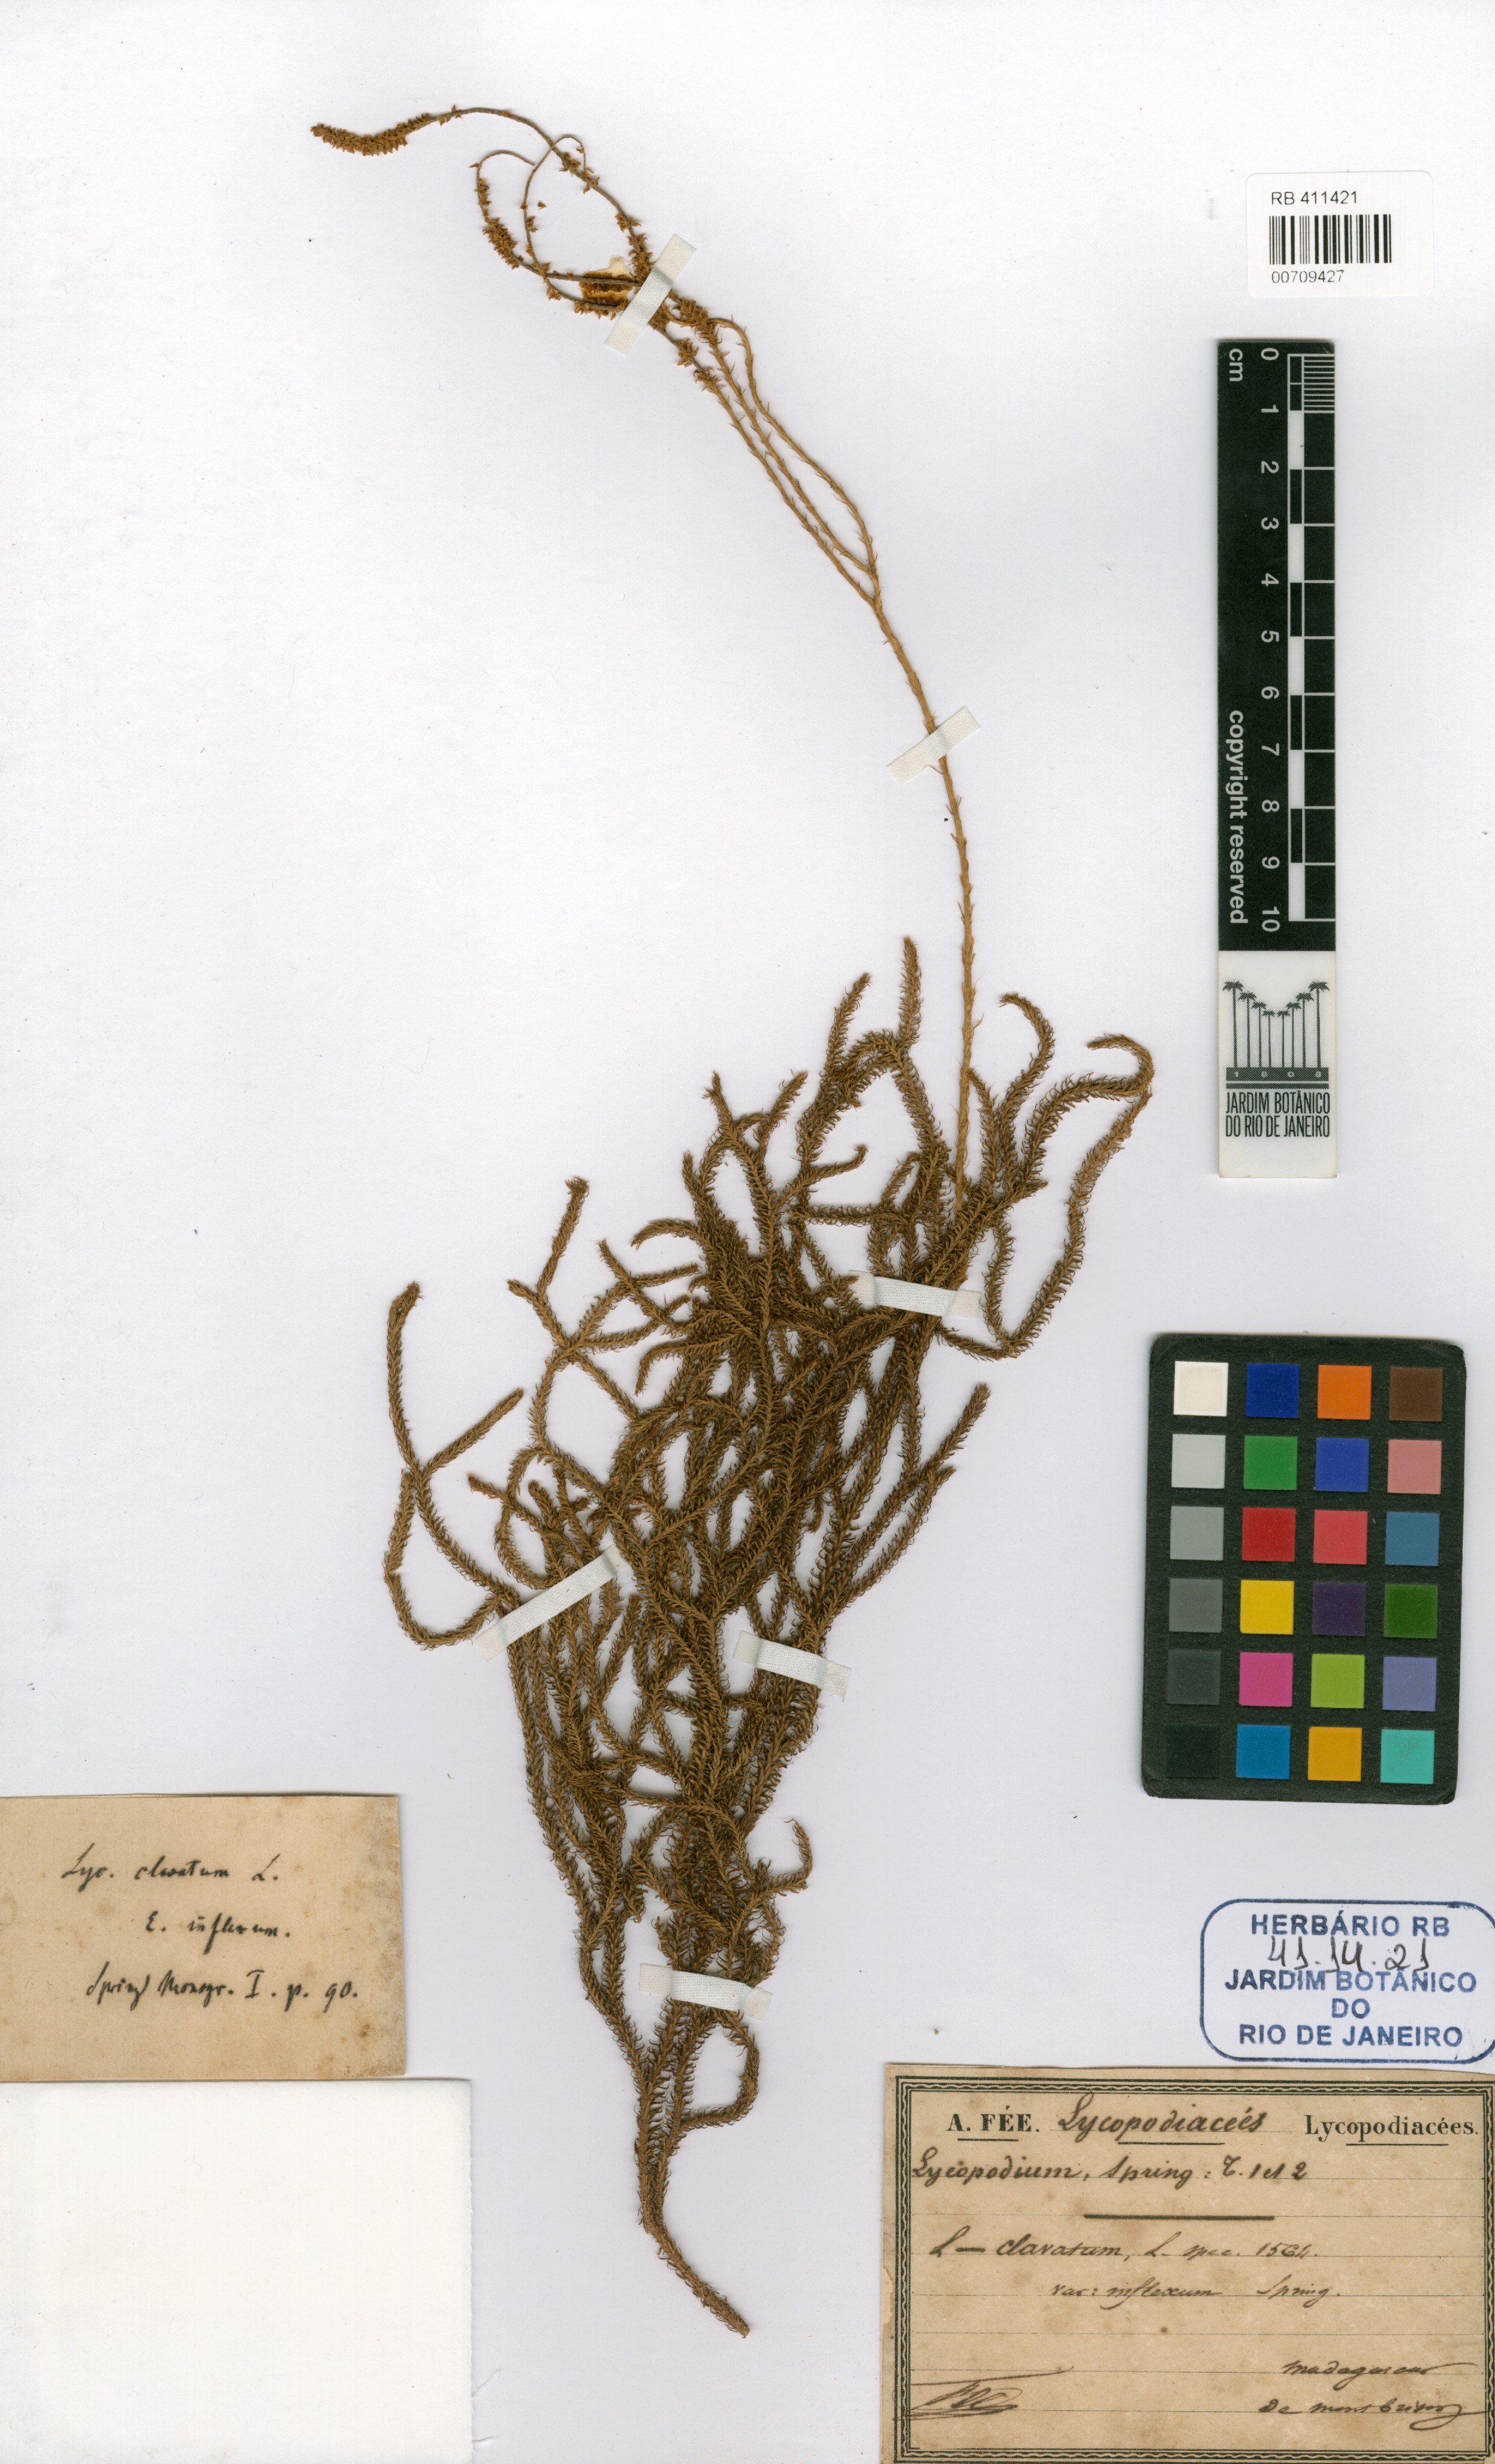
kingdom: Plantae
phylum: Tracheophyta
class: Lycopodiopsida
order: Lycopodiales
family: Lycopodiaceae
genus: Lycopodium
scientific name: Lycopodium clavatum
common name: Stag's-horn clubmoss
